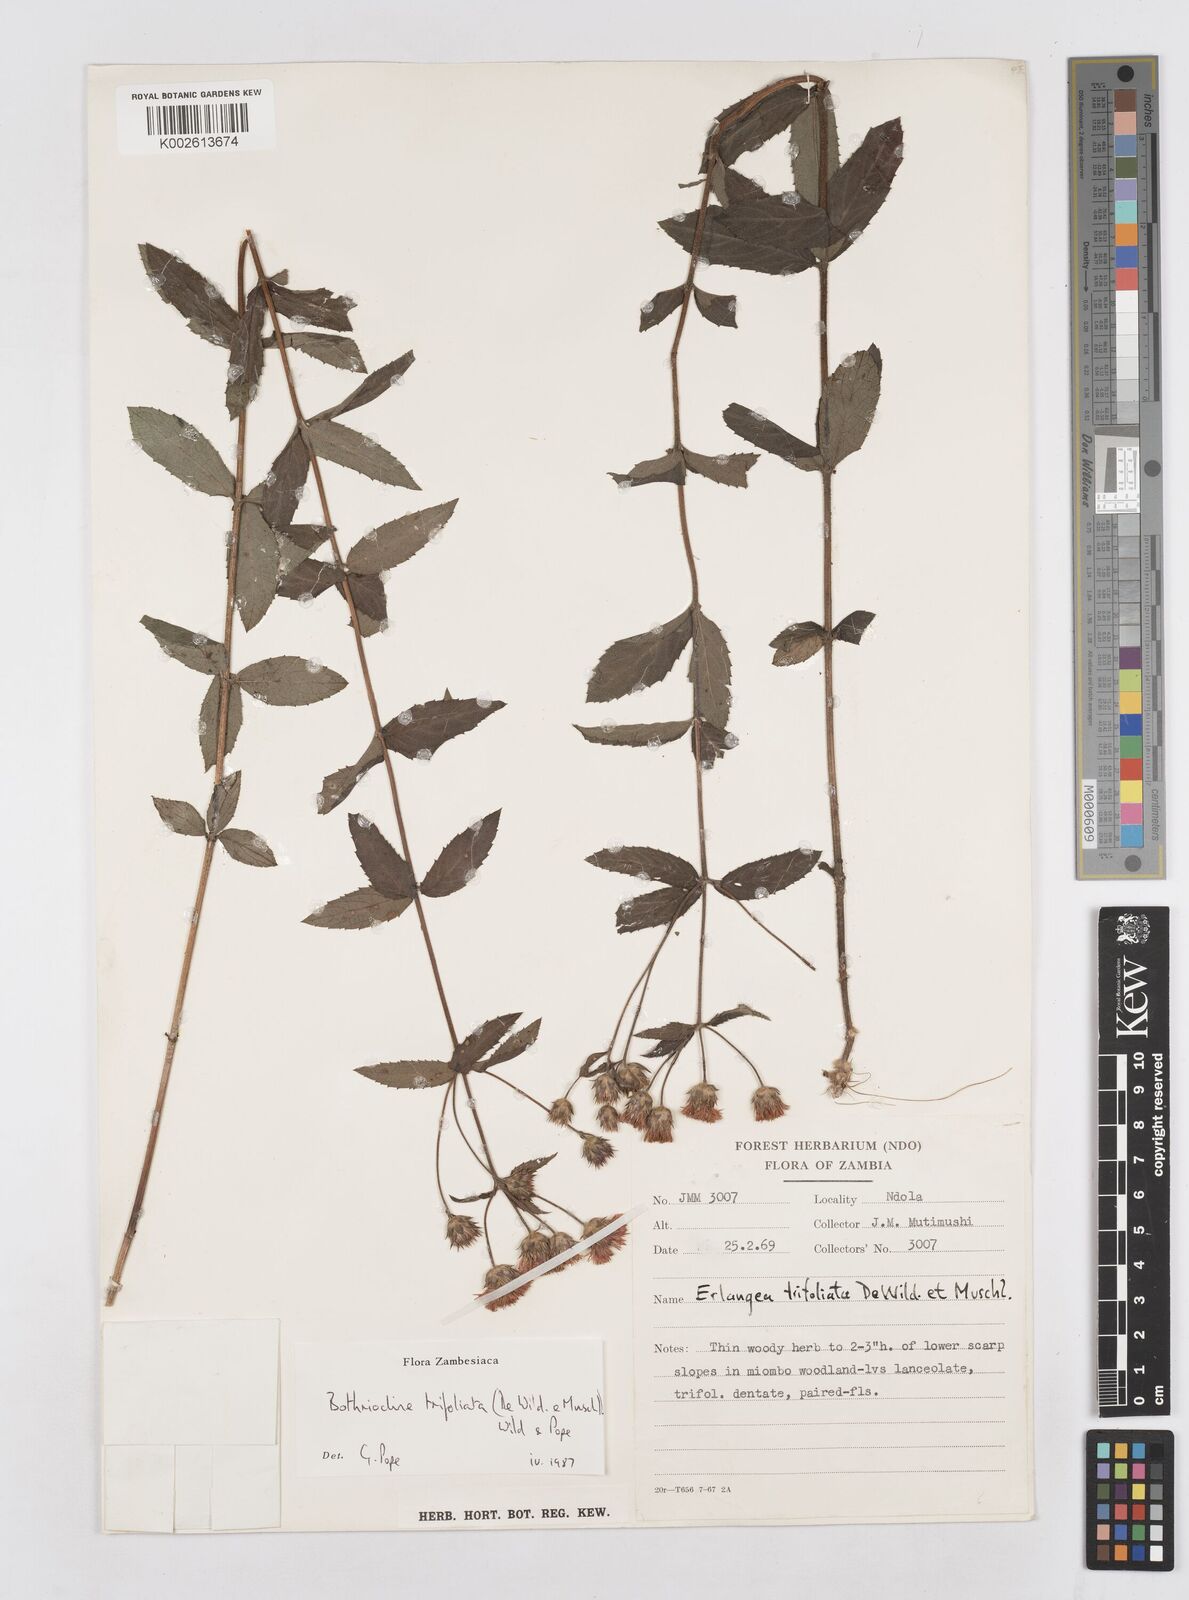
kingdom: Plantae
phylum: Tracheophyta
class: Magnoliopsida
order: Asterales
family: Asteraceae
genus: Bothriocline
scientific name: Bothriocline trifoliata
